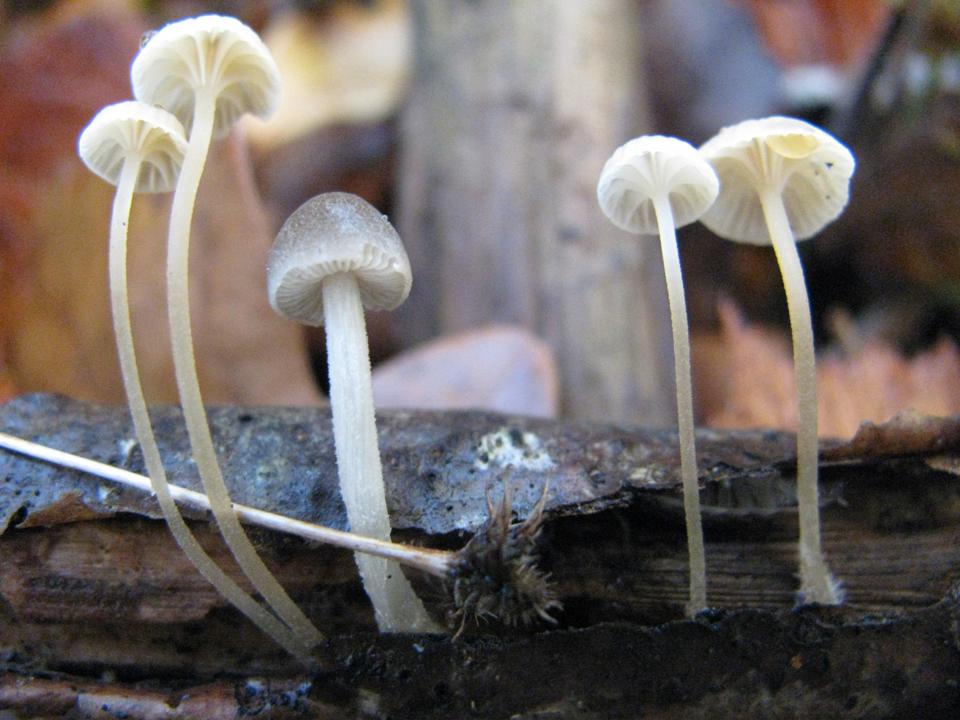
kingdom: Fungi
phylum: Basidiomycota
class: Agaricomycetes
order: Agaricales
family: Porotheleaceae
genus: Phloeomana
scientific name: Phloeomana speirea
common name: kvist-huesvamp
